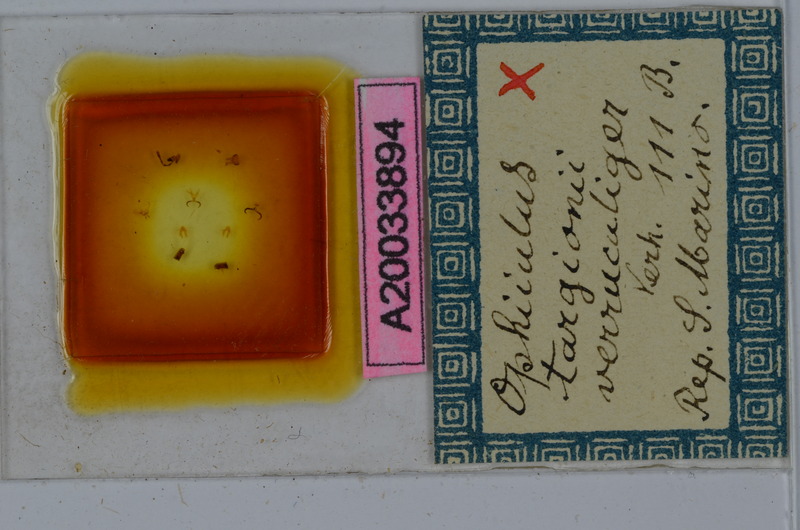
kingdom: Animalia
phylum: Arthropoda
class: Diplopoda
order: Julida
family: Julidae
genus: Ophyiulus
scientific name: Ophyiulus targionii
